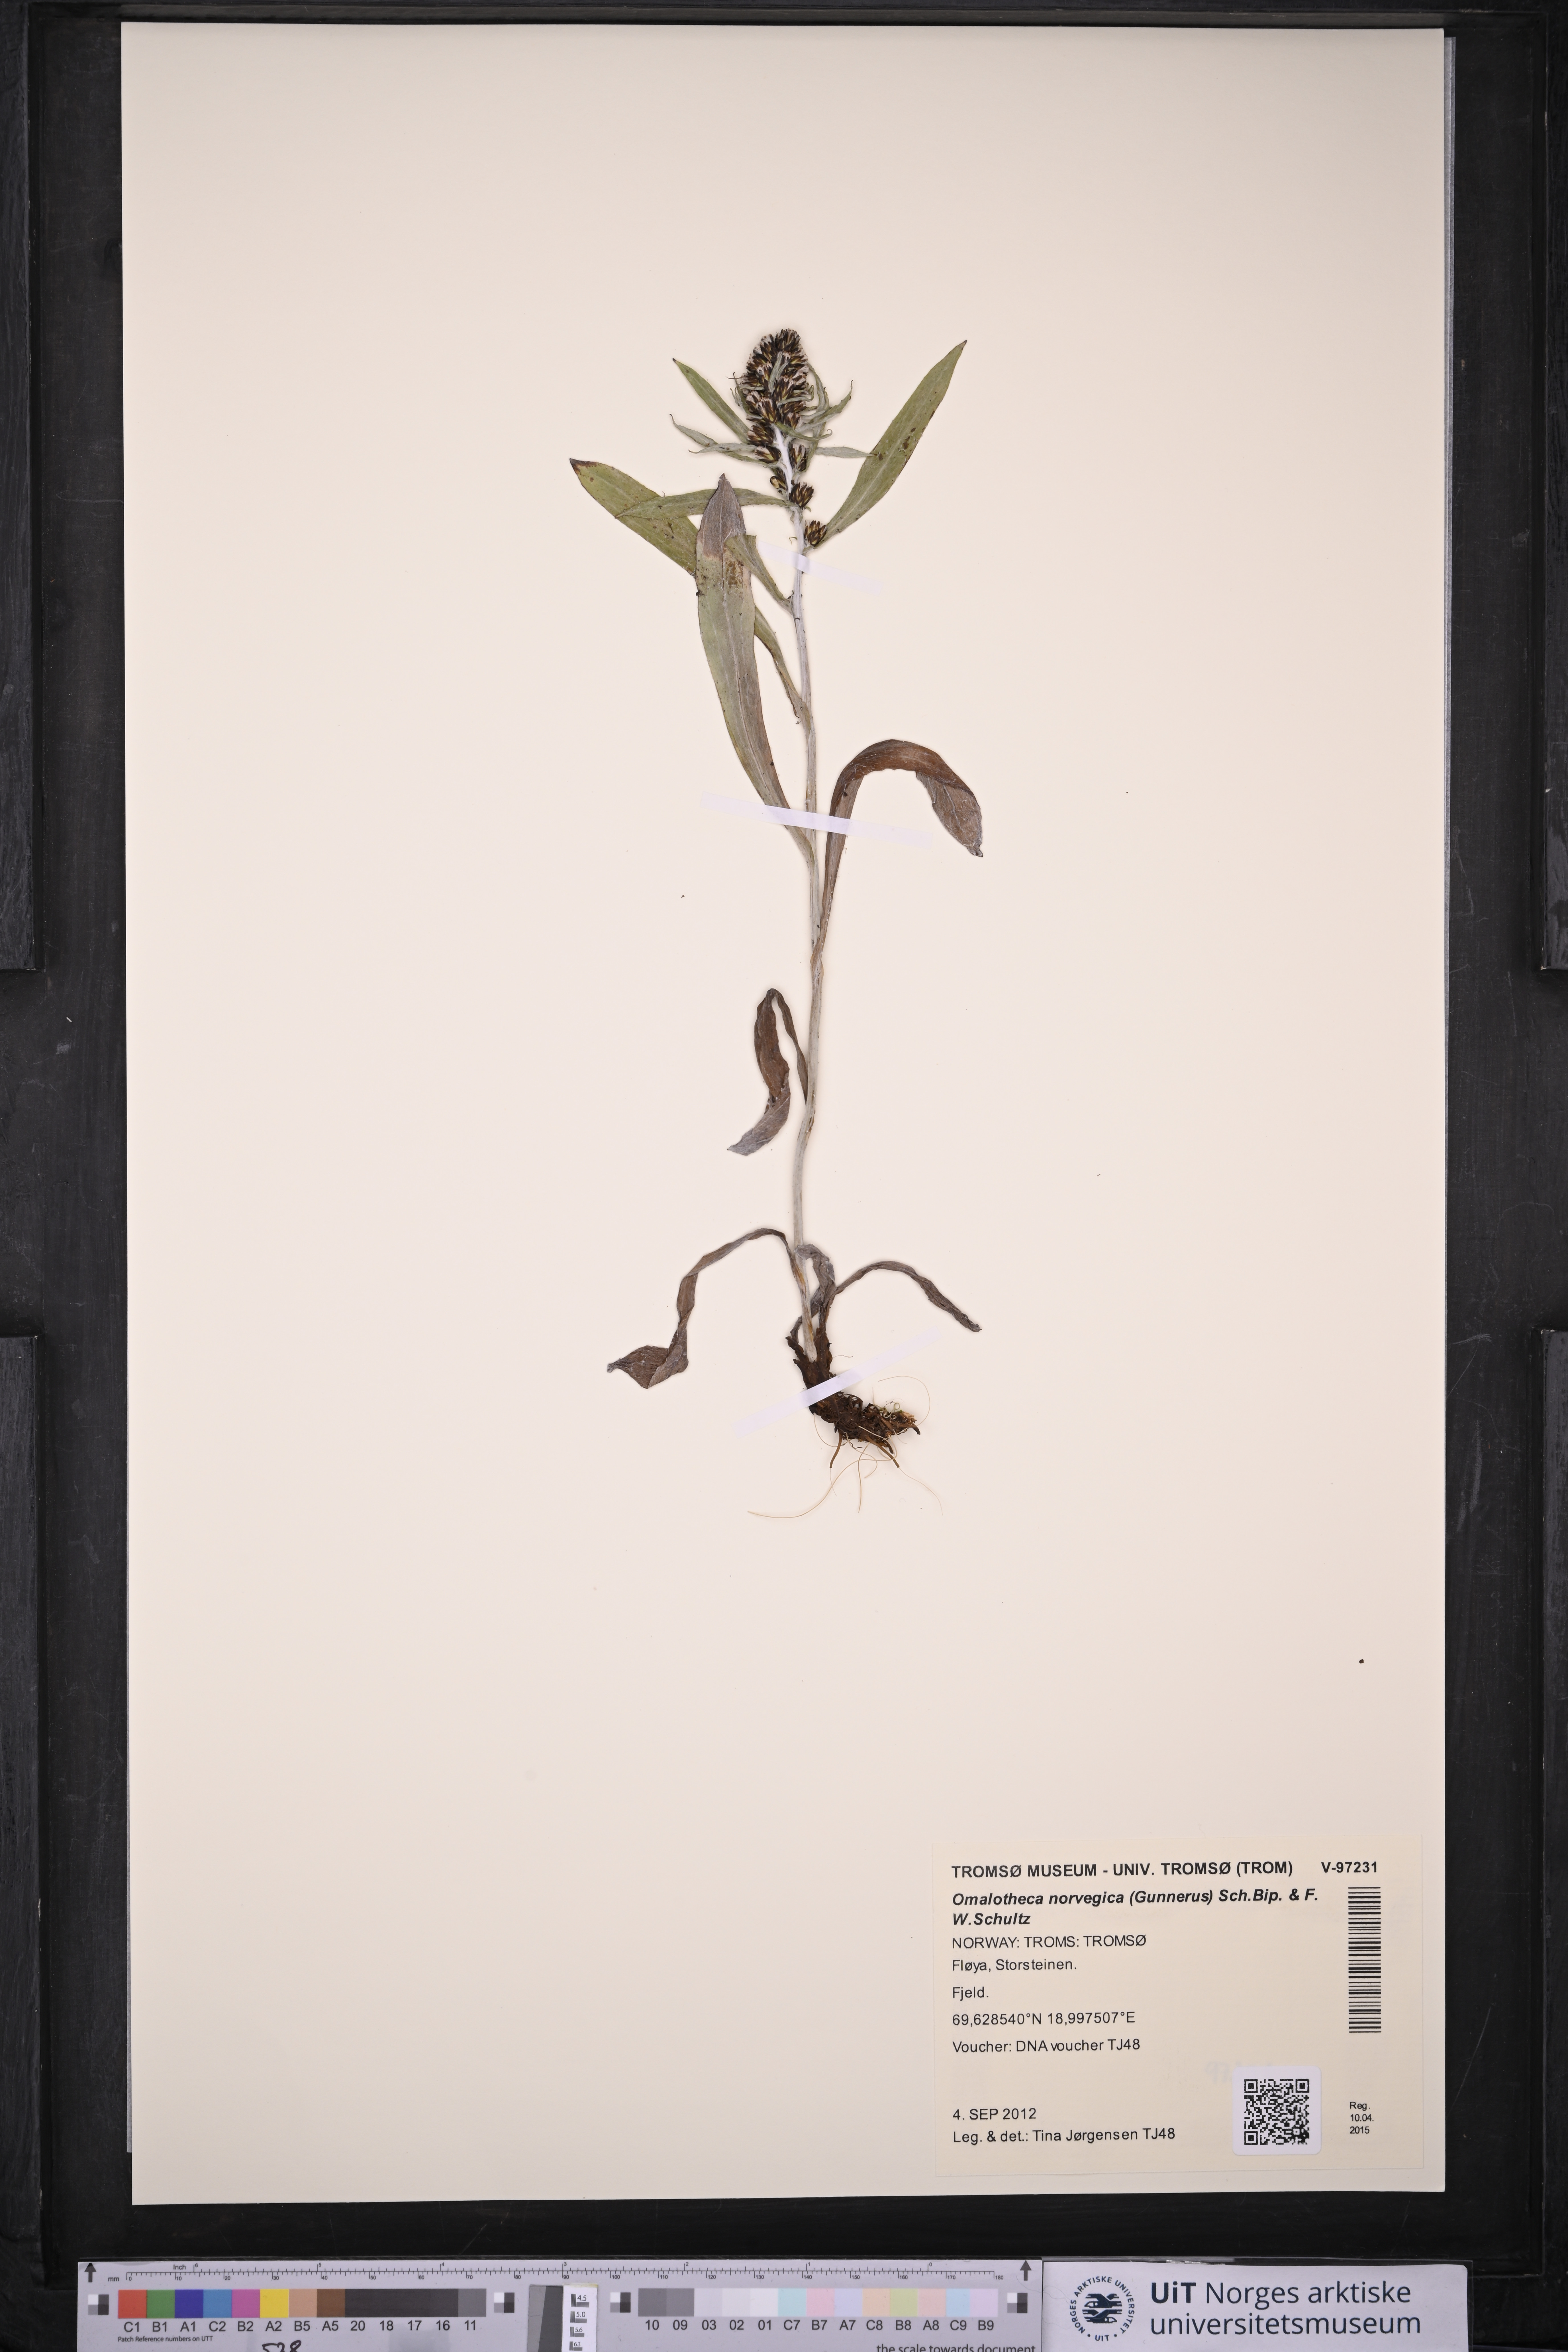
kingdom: Plantae
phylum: Tracheophyta
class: Magnoliopsida
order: Asterales
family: Asteraceae
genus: Omalotheca
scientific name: Omalotheca norvegica
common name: Norwegian arctic-cudweed
